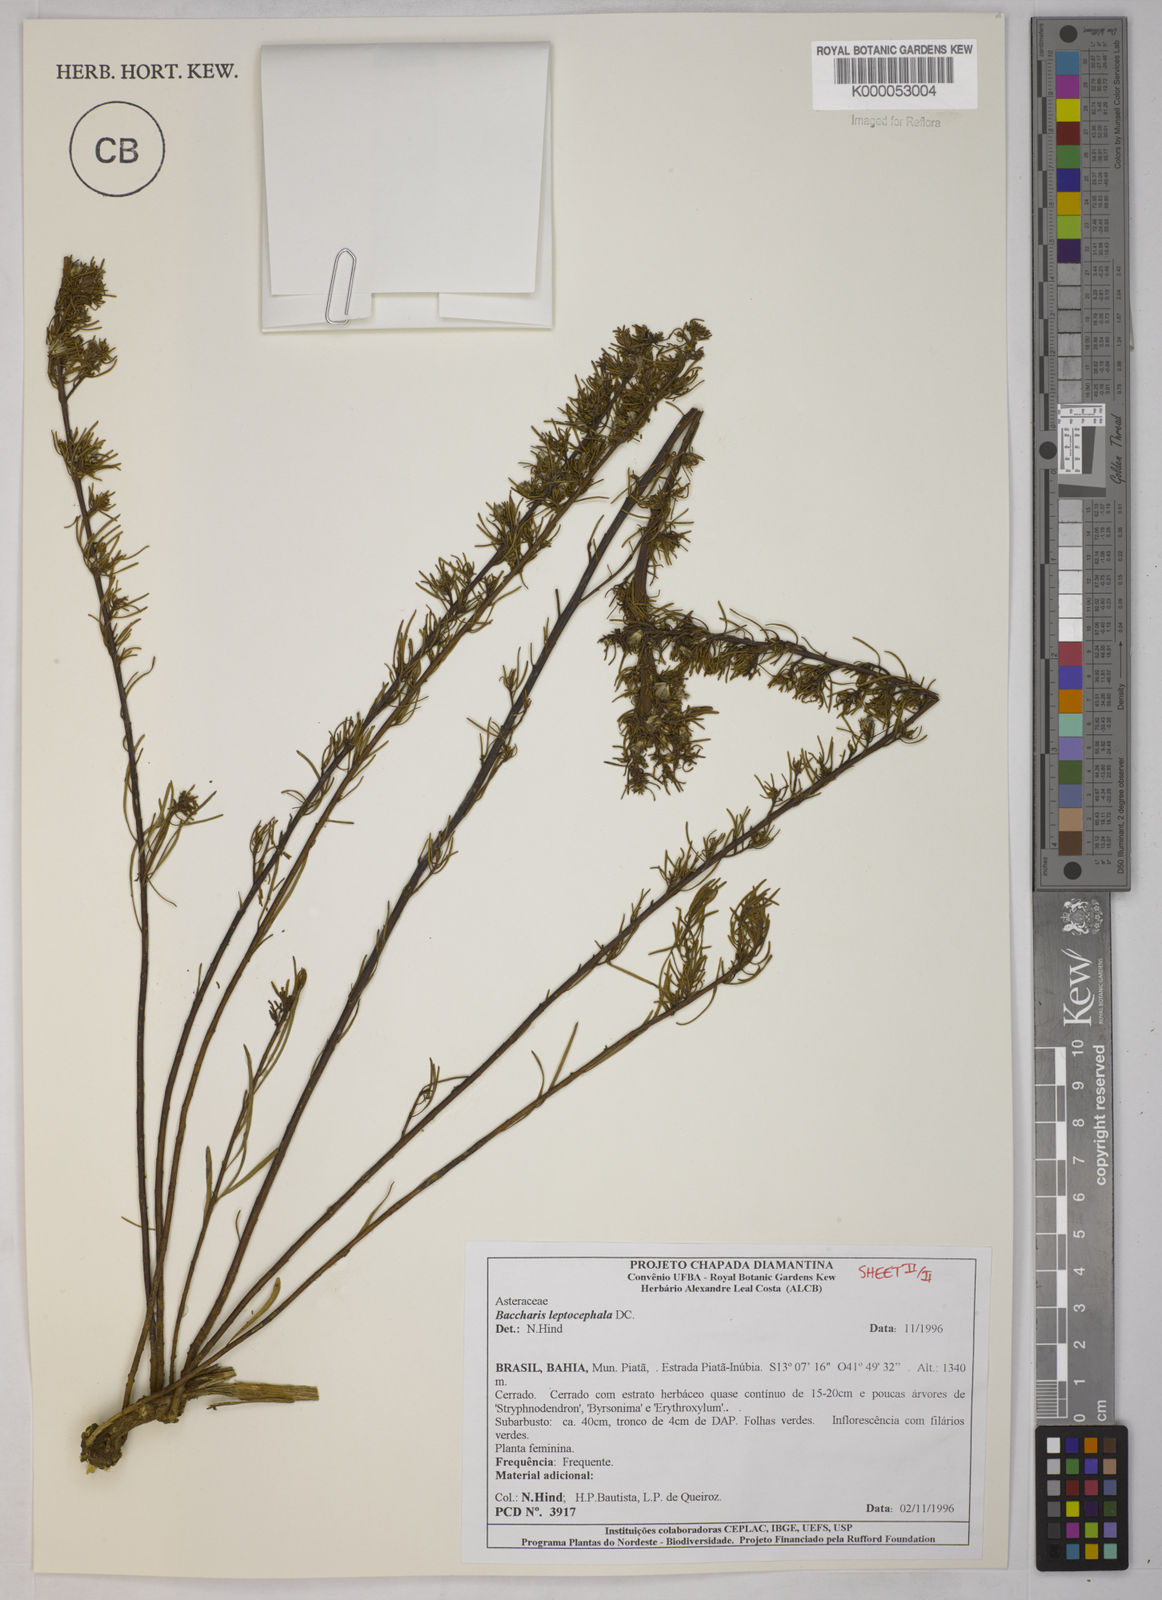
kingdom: Plantae
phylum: Tracheophyta
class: Magnoliopsida
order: Asterales
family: Asteraceae
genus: Baccharis
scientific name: Baccharis leptocephala
